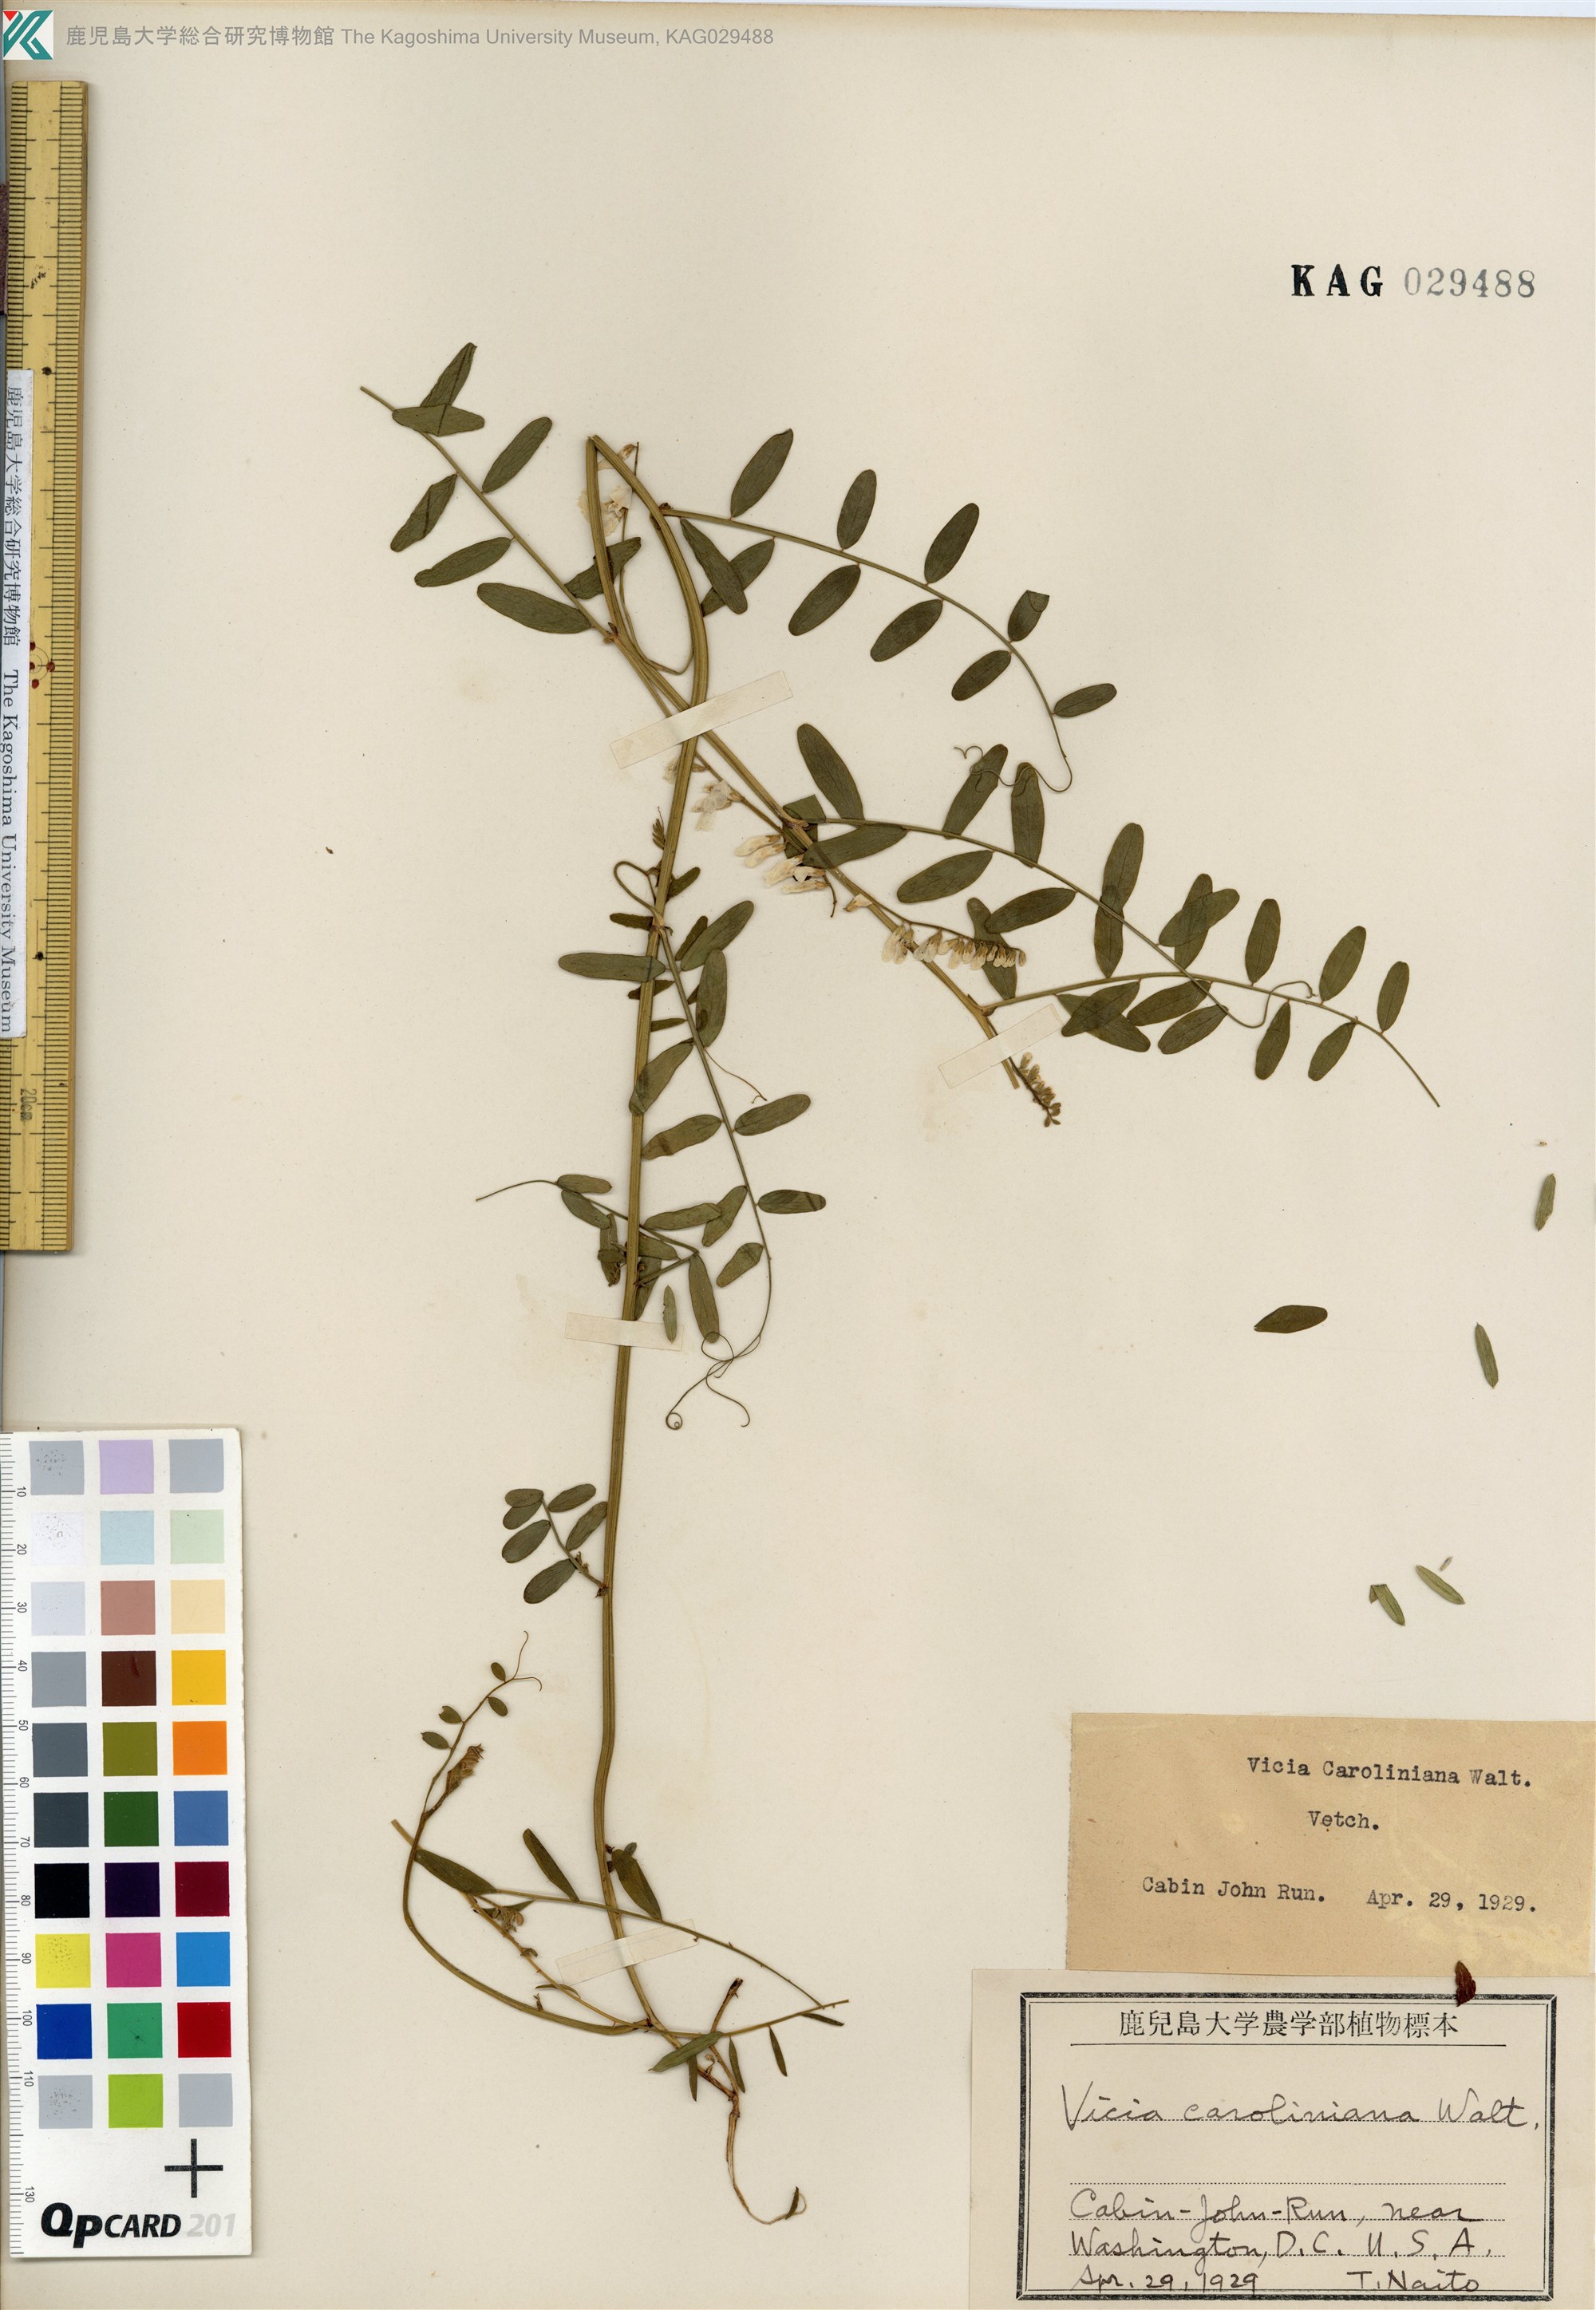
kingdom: Plantae
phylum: Tracheophyta
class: Magnoliopsida
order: Fabales
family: Fabaceae
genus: Vicia
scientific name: Vicia caroliniana
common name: Carolina vetch
